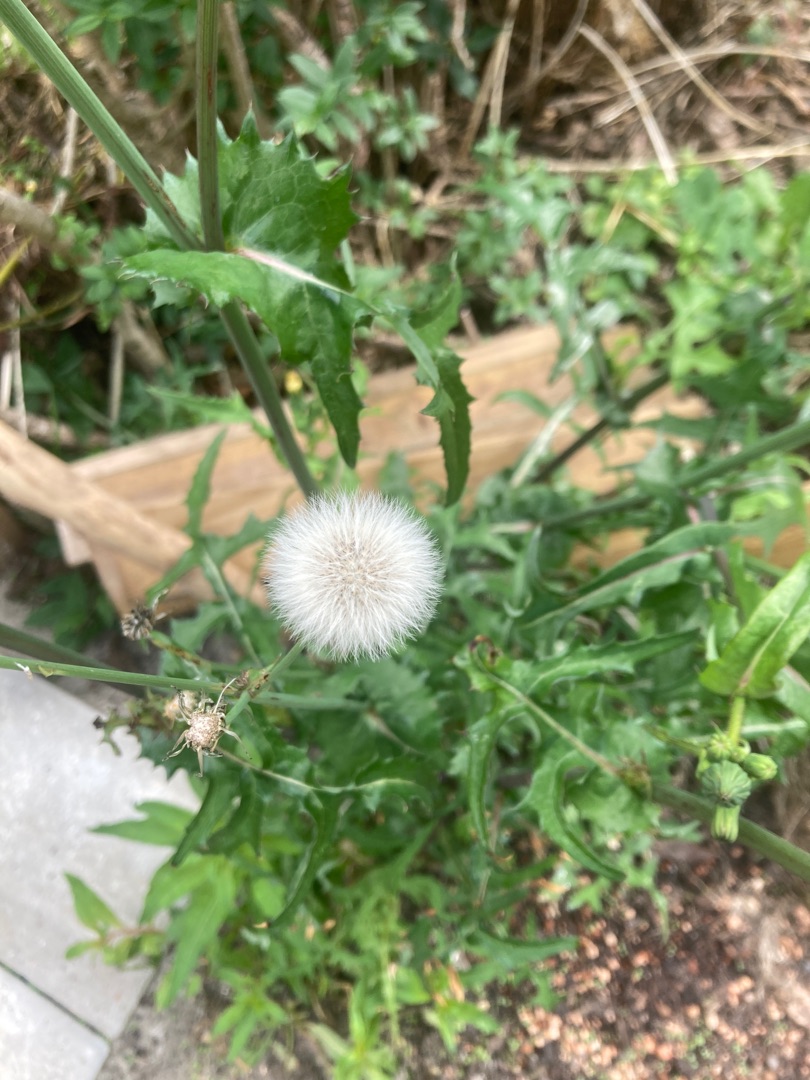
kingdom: Plantae
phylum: Tracheophyta
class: Magnoliopsida
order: Asterales
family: Asteraceae
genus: Sonchus
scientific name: Sonchus asper
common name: Ru svinemælk
